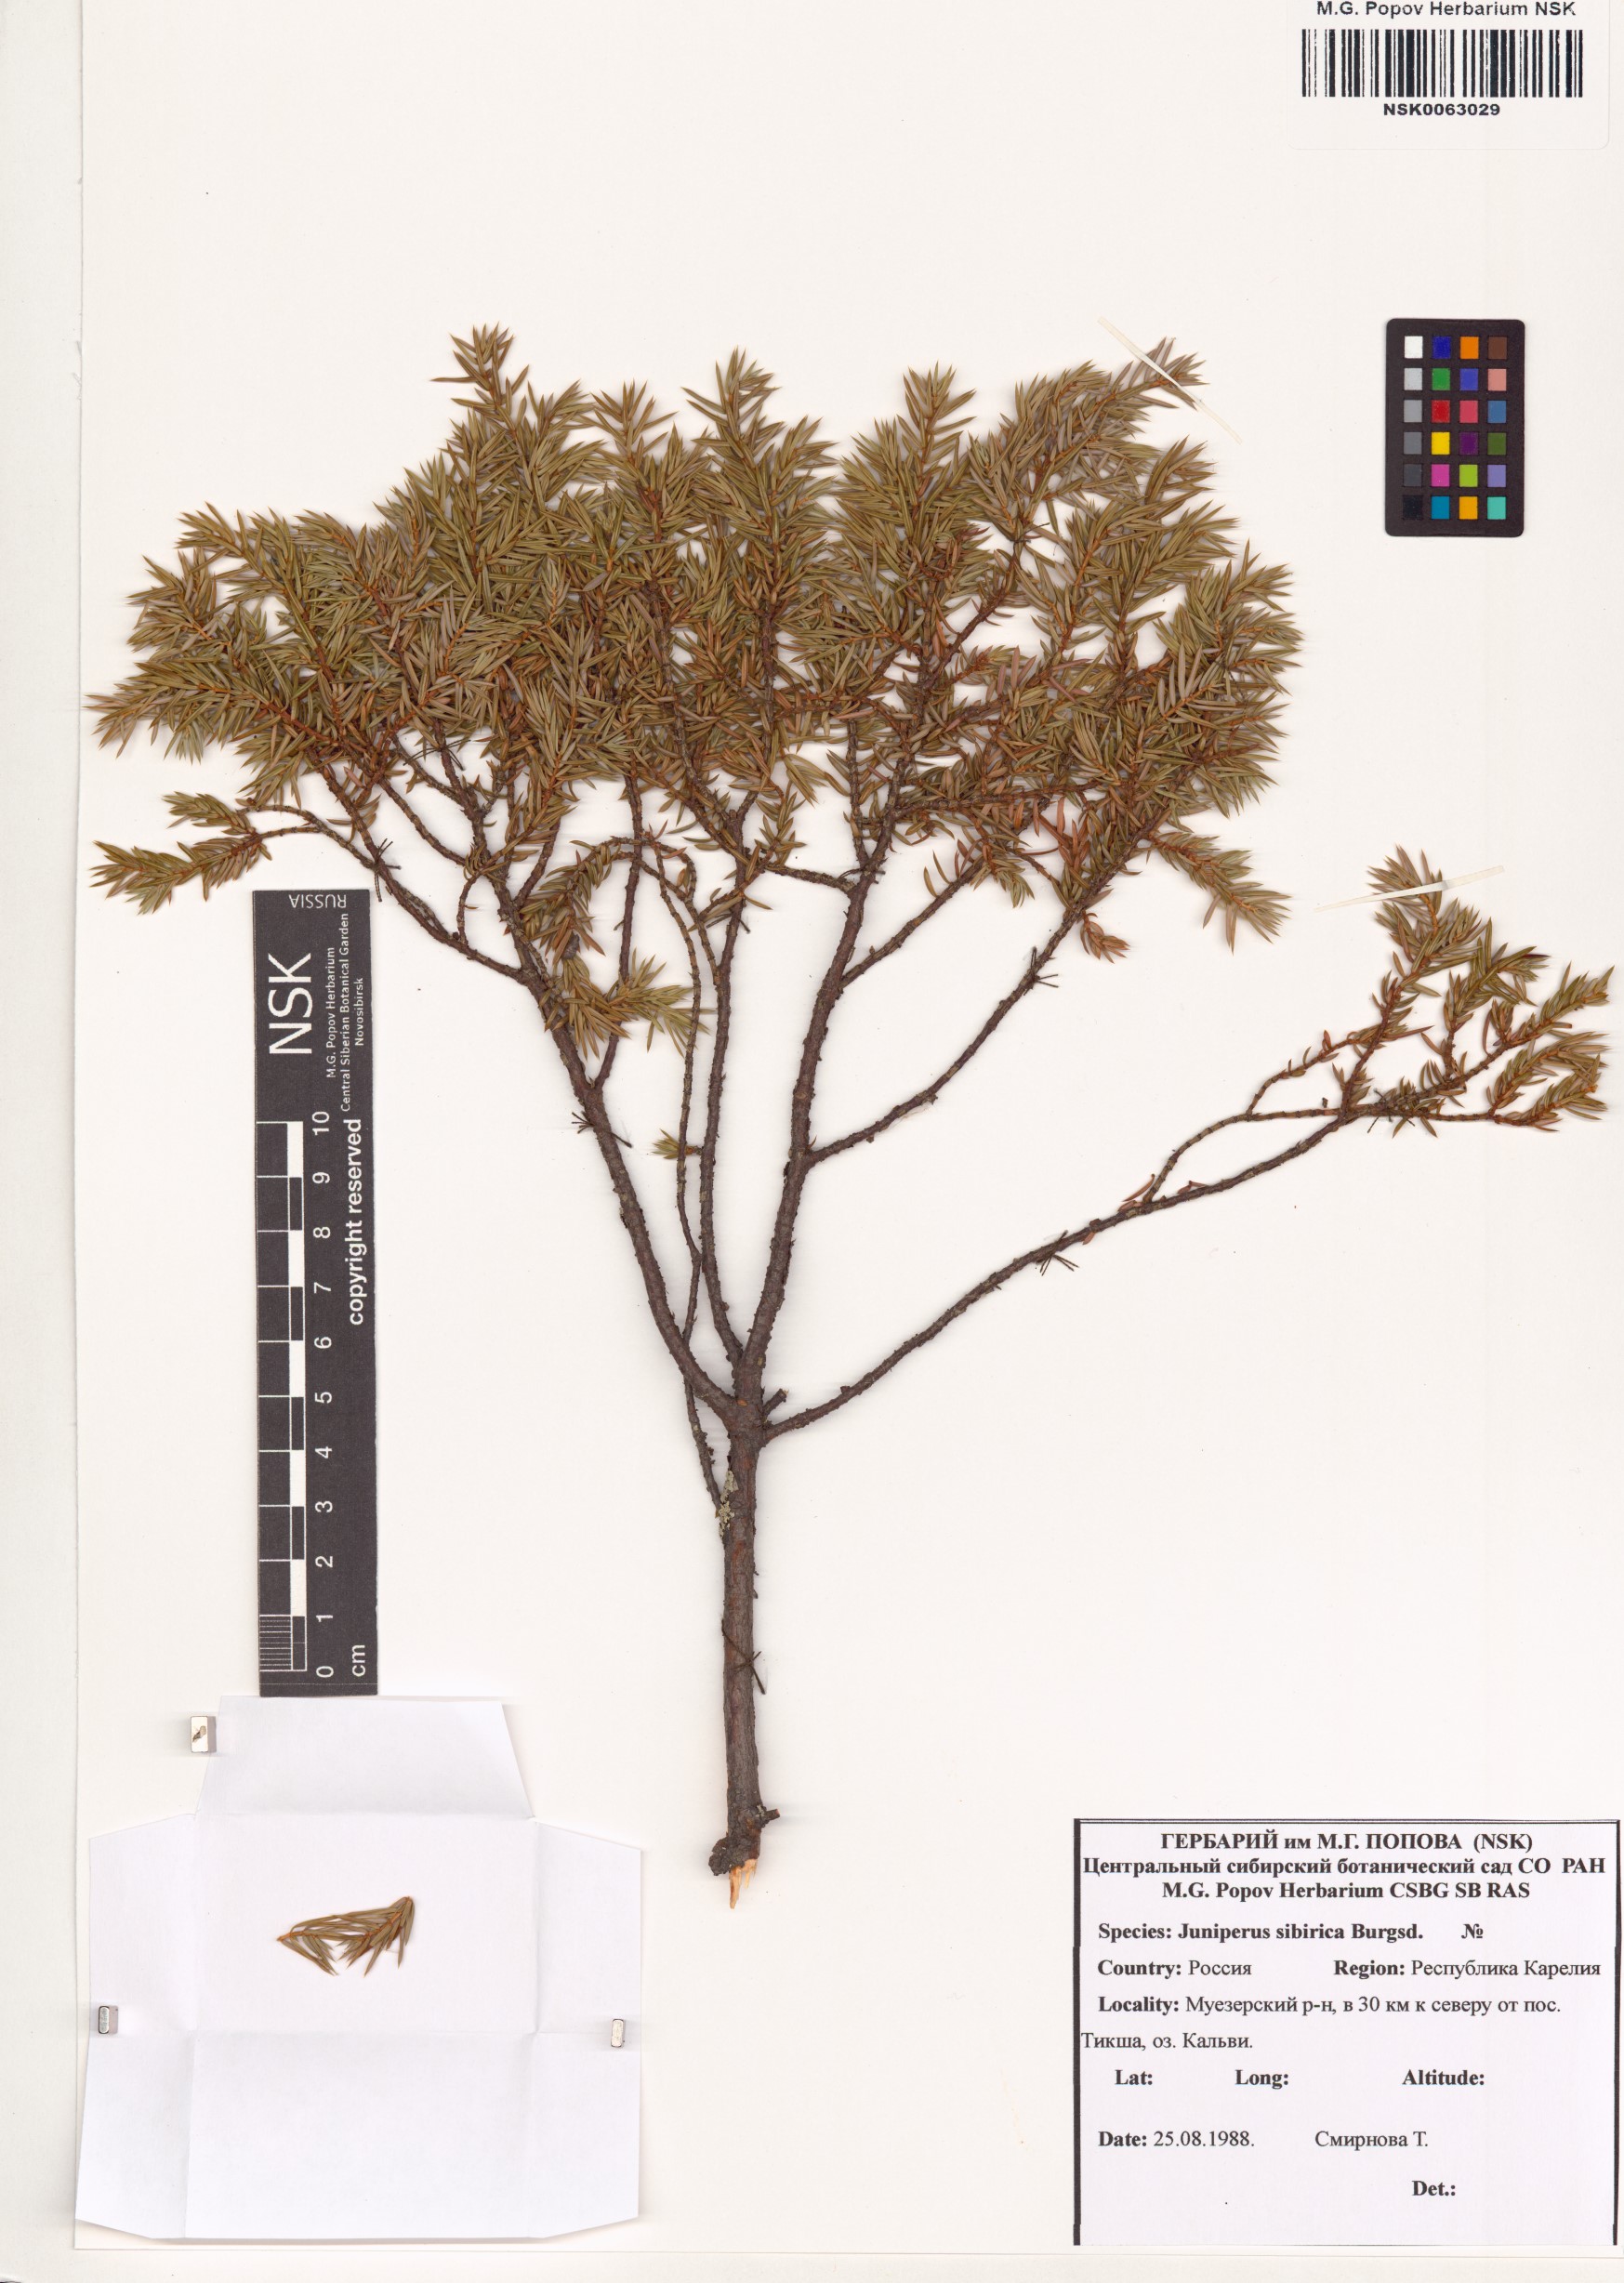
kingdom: Plantae
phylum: Tracheophyta
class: Pinopsida
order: Pinales
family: Cupressaceae
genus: Juniperus
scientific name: Juniperus communis
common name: Common juniper
